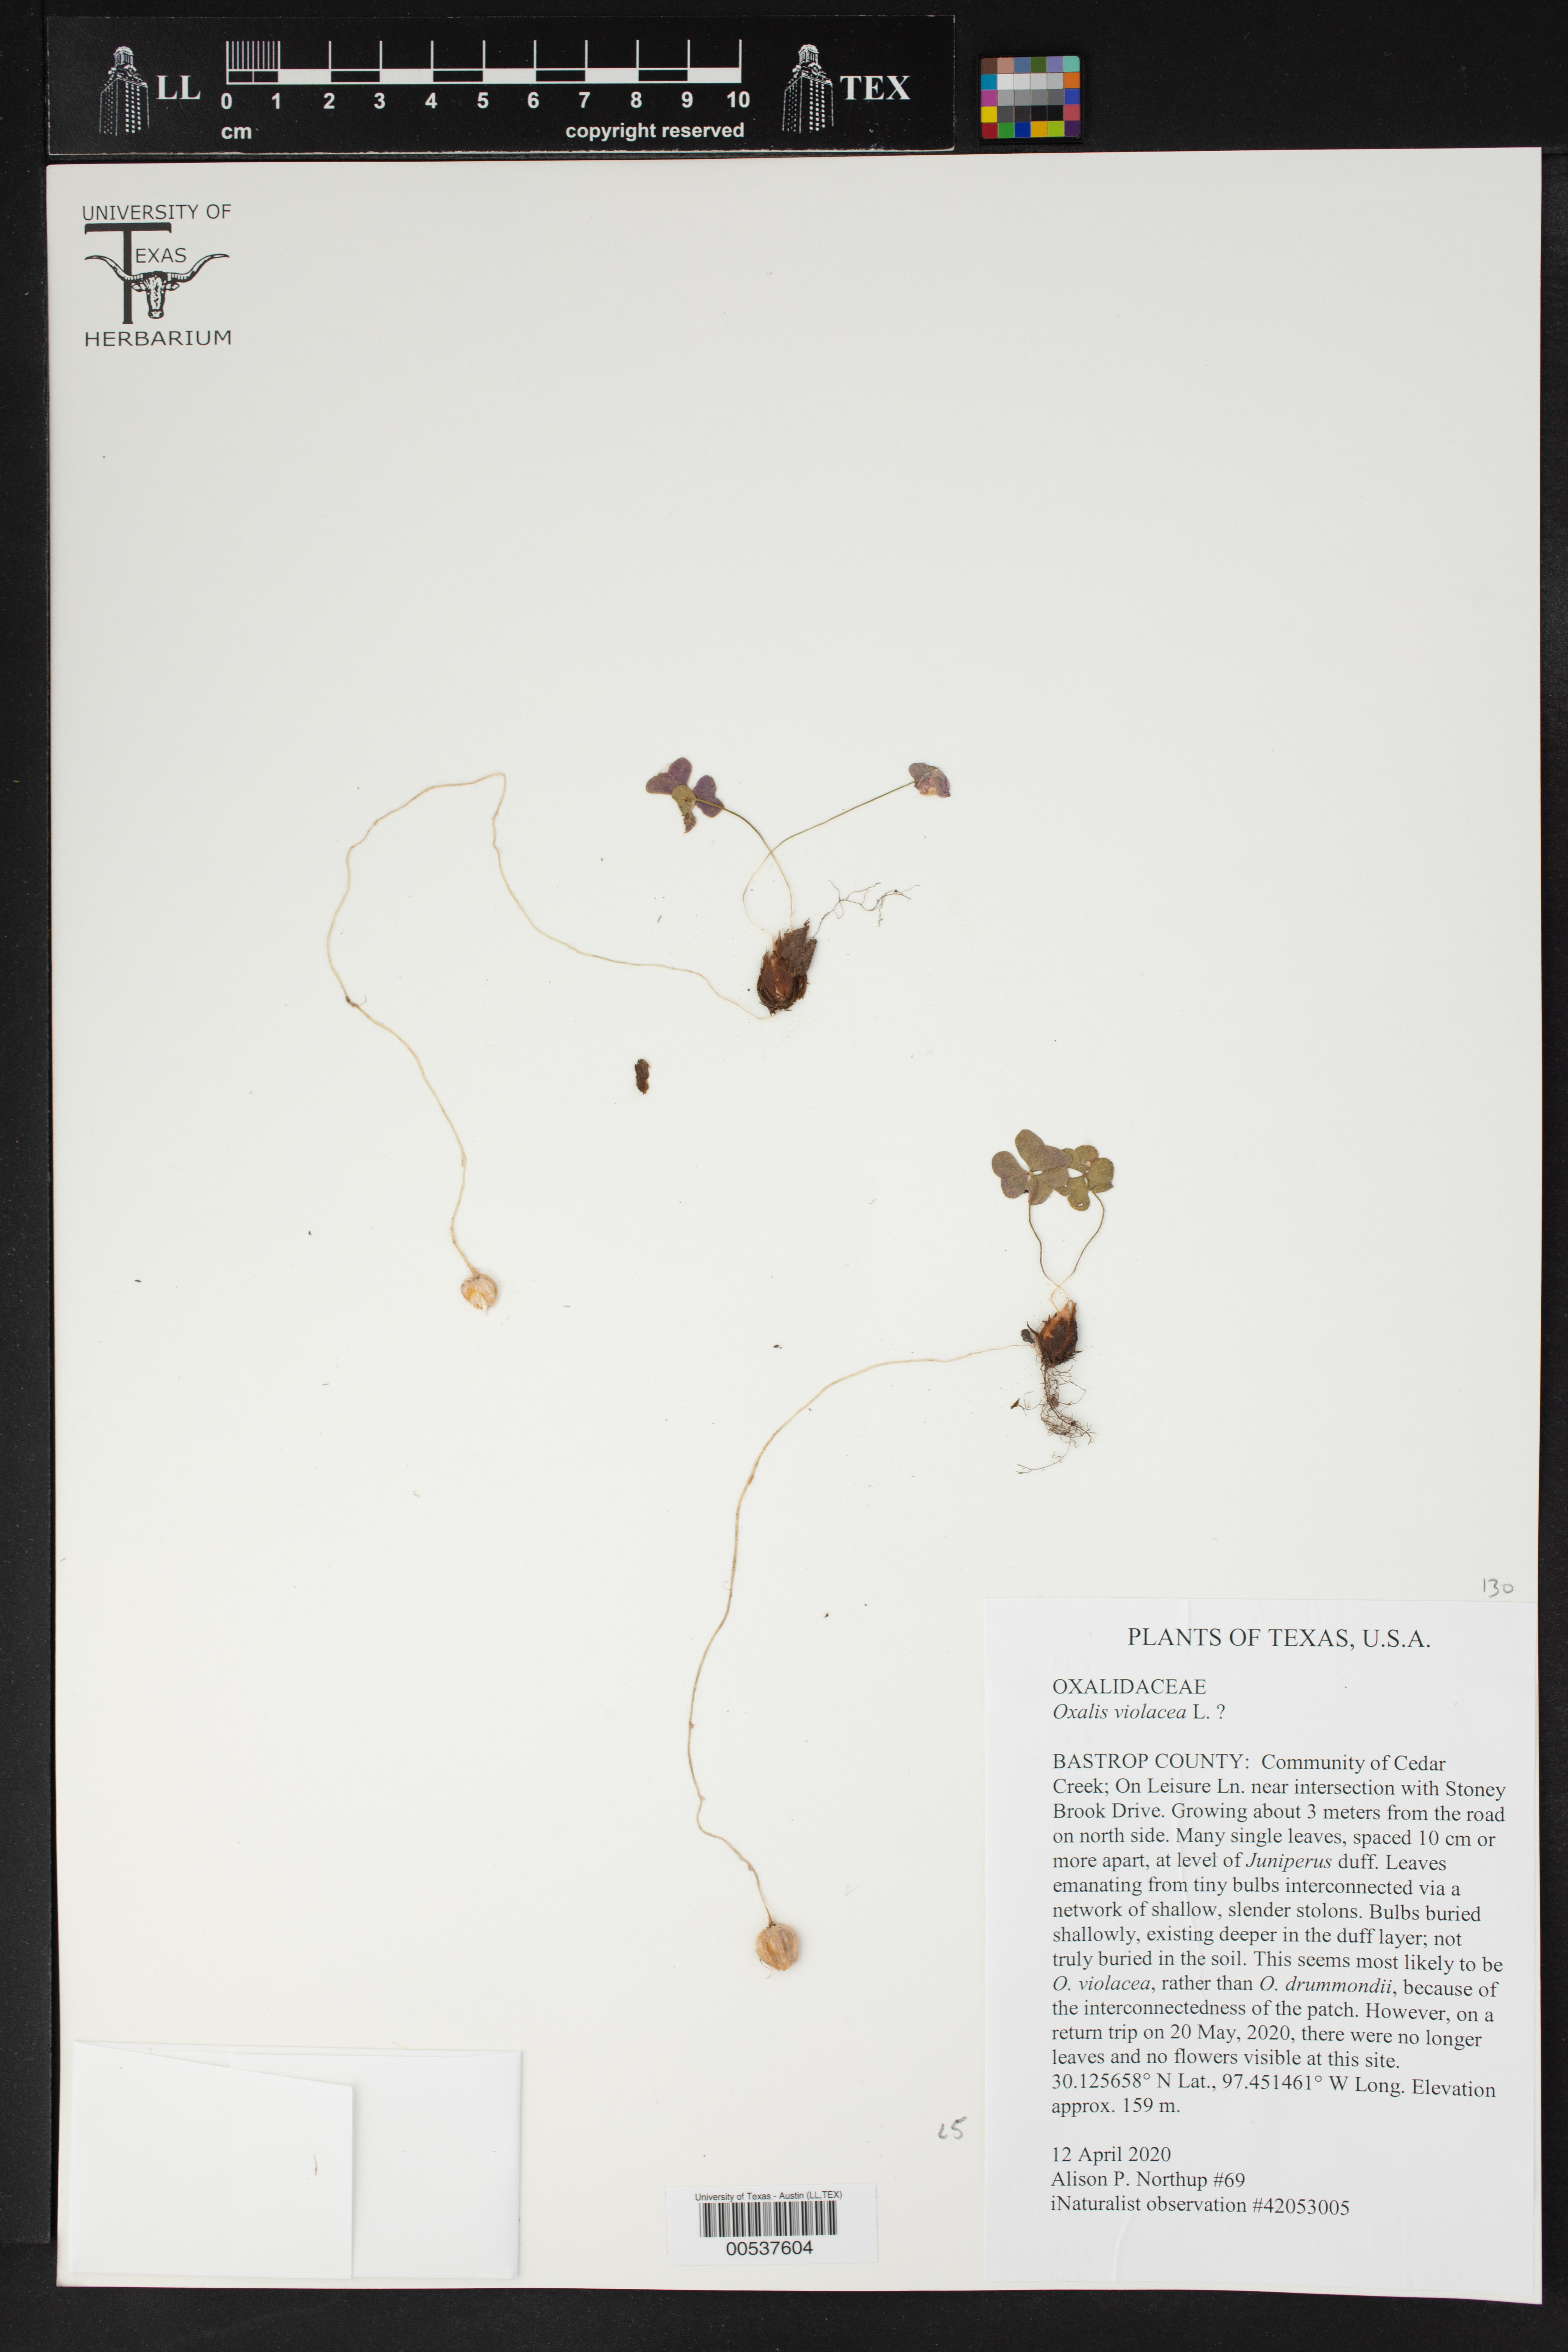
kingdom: Plantae
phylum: Tracheophyta
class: Magnoliopsida
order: Oxalidales
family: Oxalidaceae
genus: Oxalis
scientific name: Oxalis violacea
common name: Violet wood-sorrel
